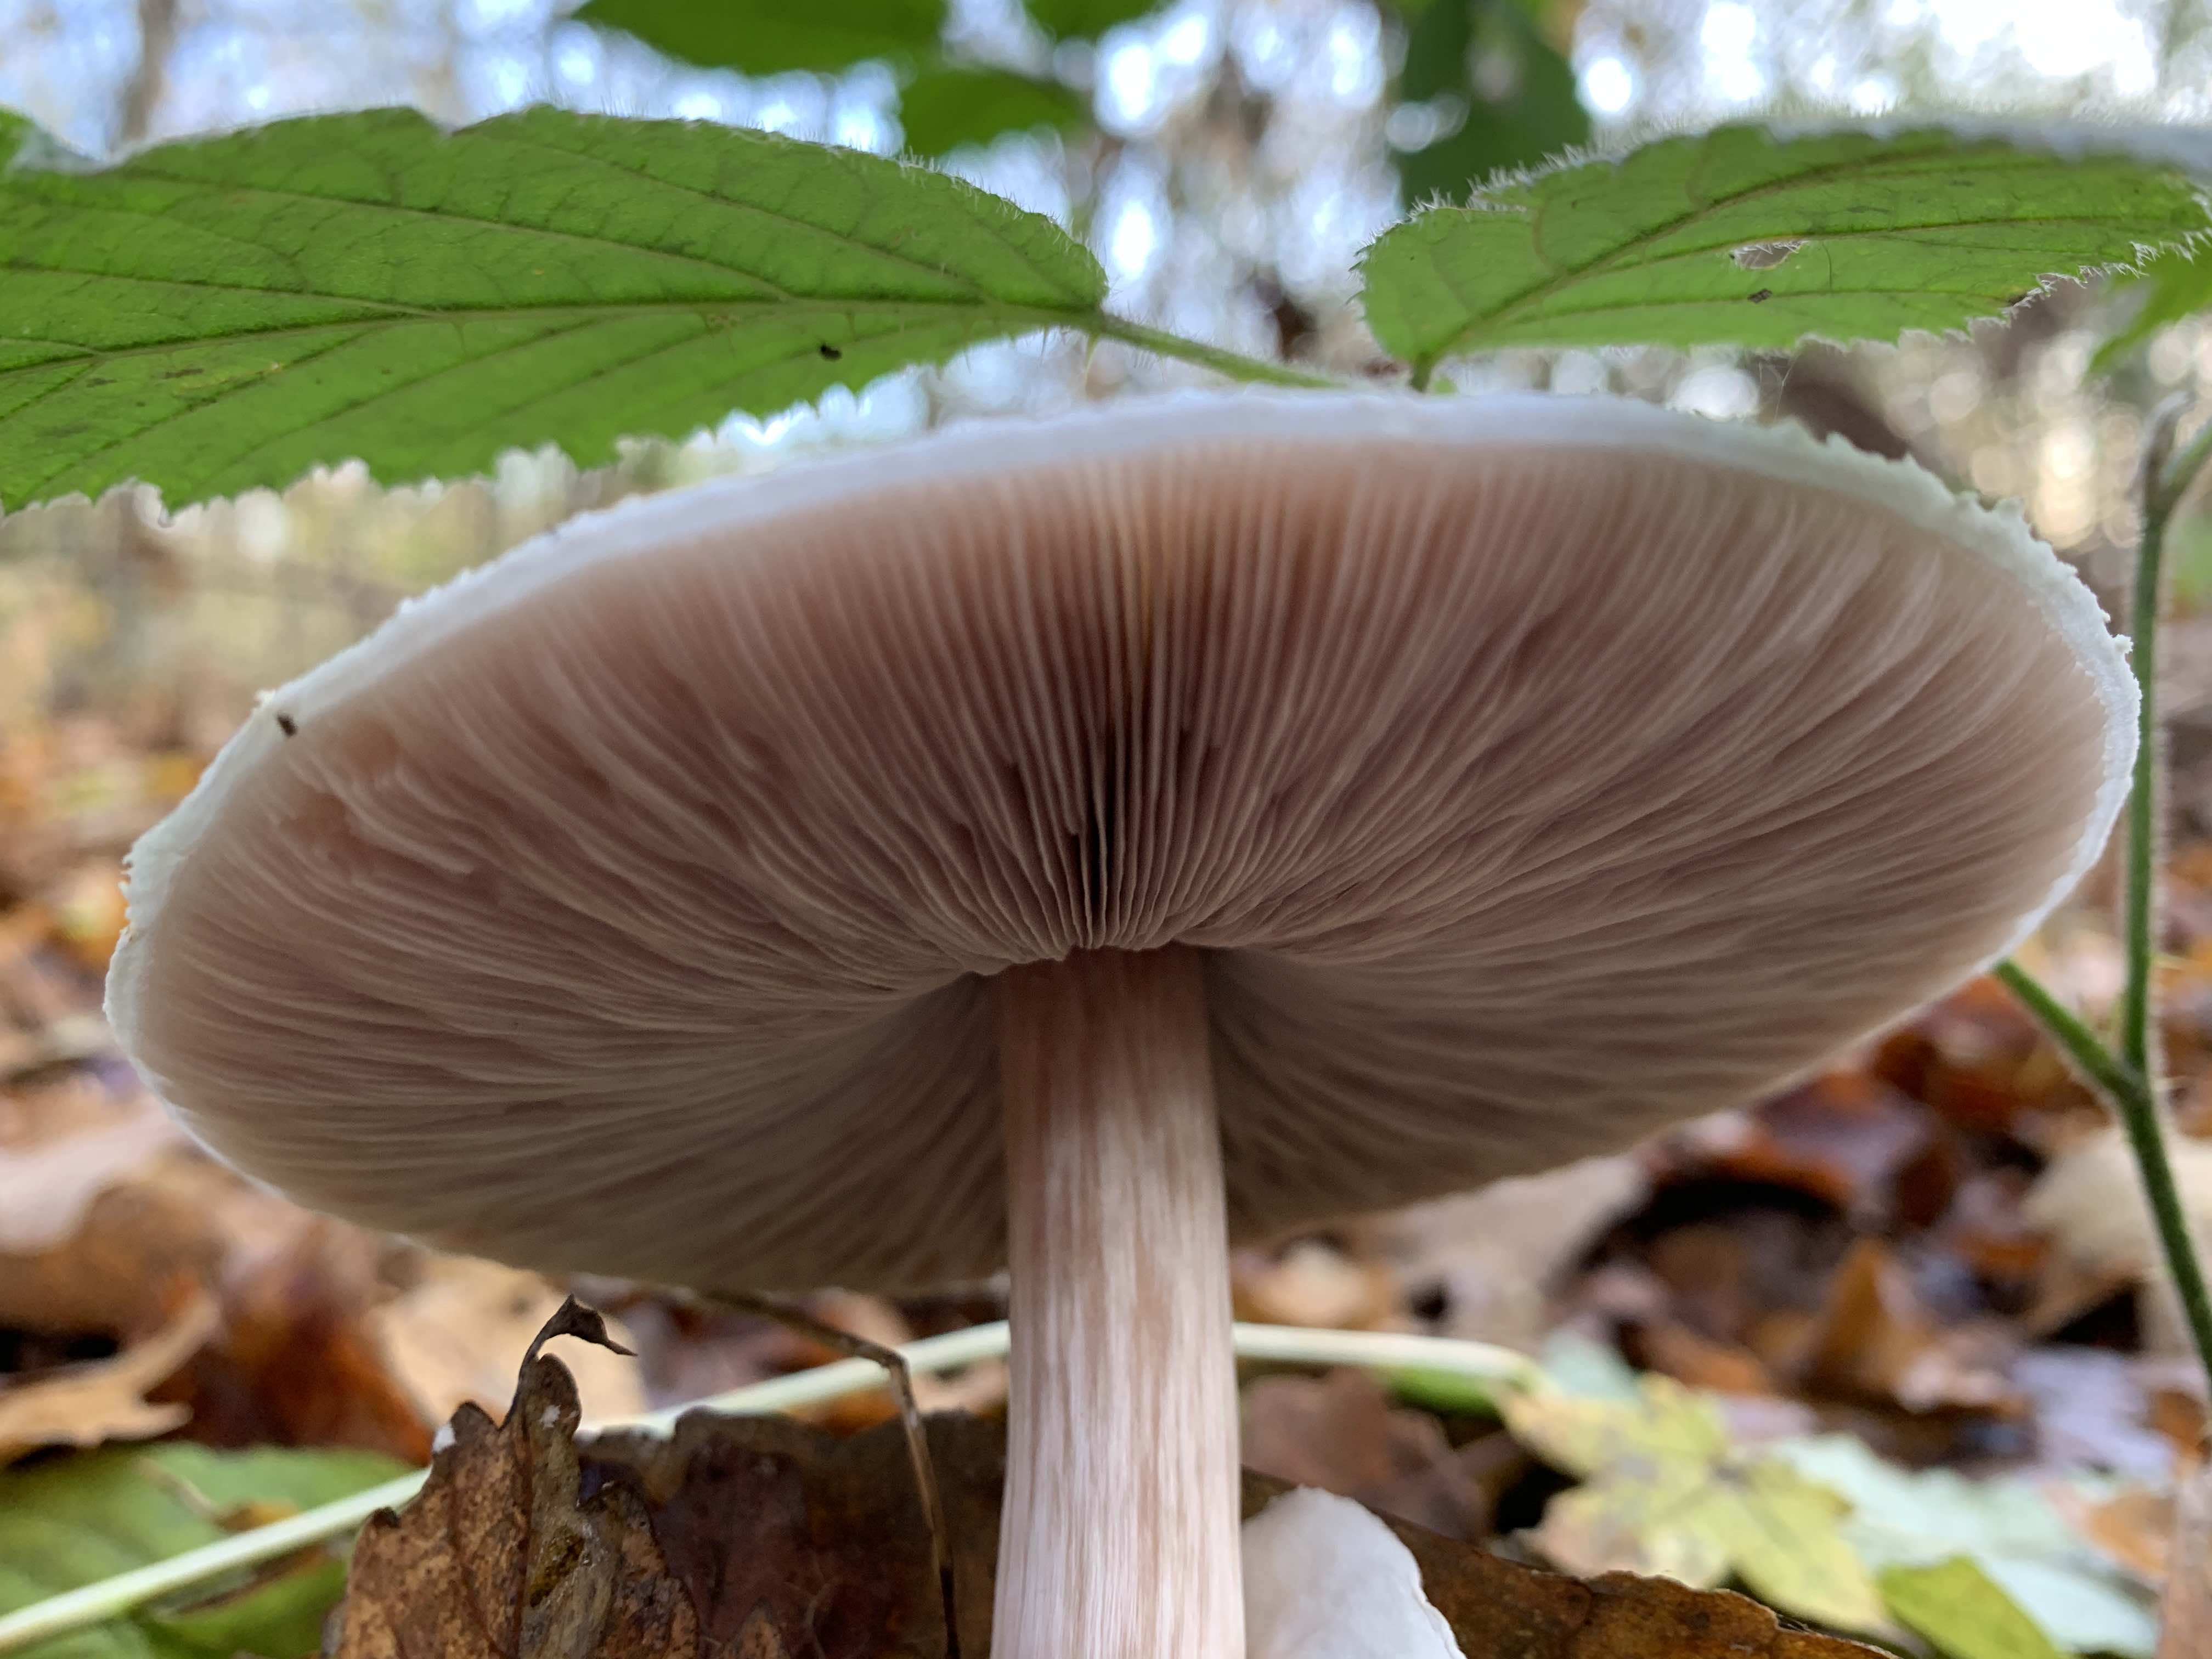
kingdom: Fungi
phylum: Basidiomycota
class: Agaricomycetes
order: Agaricales
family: Agaricaceae
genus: Leucoagaricus
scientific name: Leucoagaricus leucothites
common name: rosabladet silkehat
